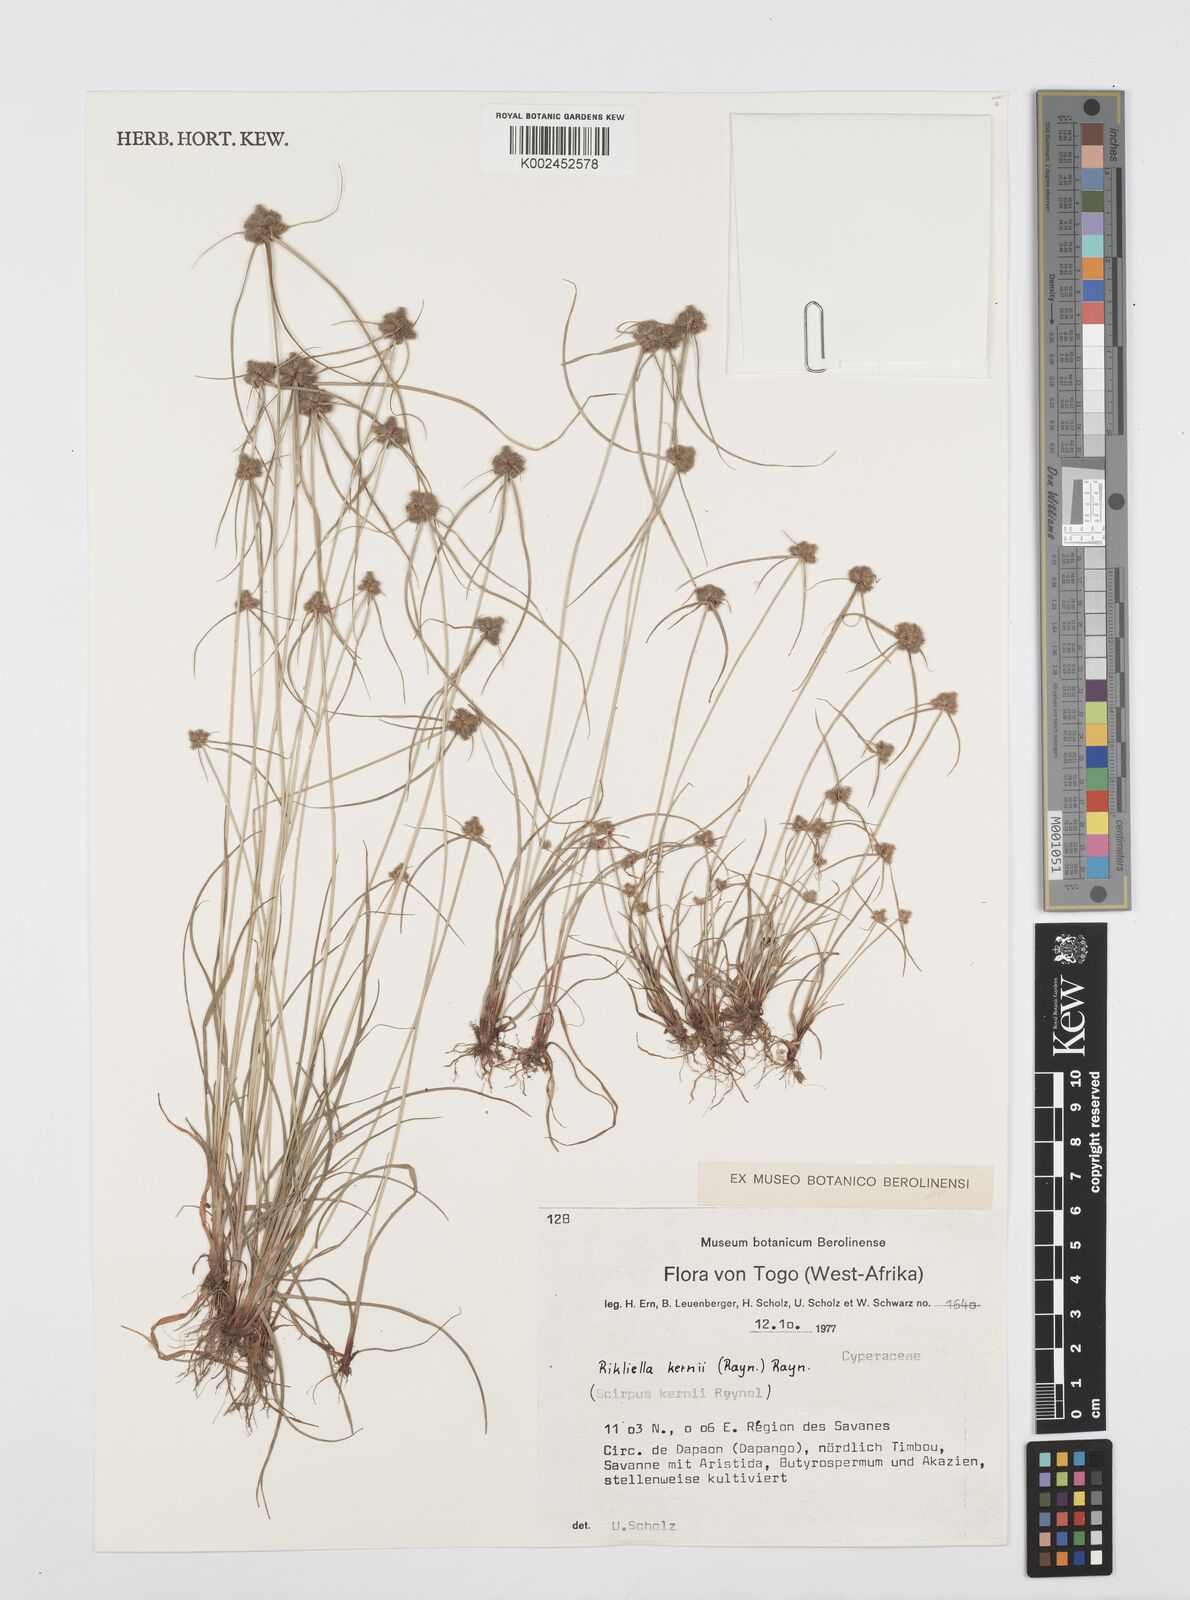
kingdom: Plantae
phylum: Tracheophyta
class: Liliopsida
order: Poales
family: Cyperaceae
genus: Cyperus
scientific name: Cyperus kernii
